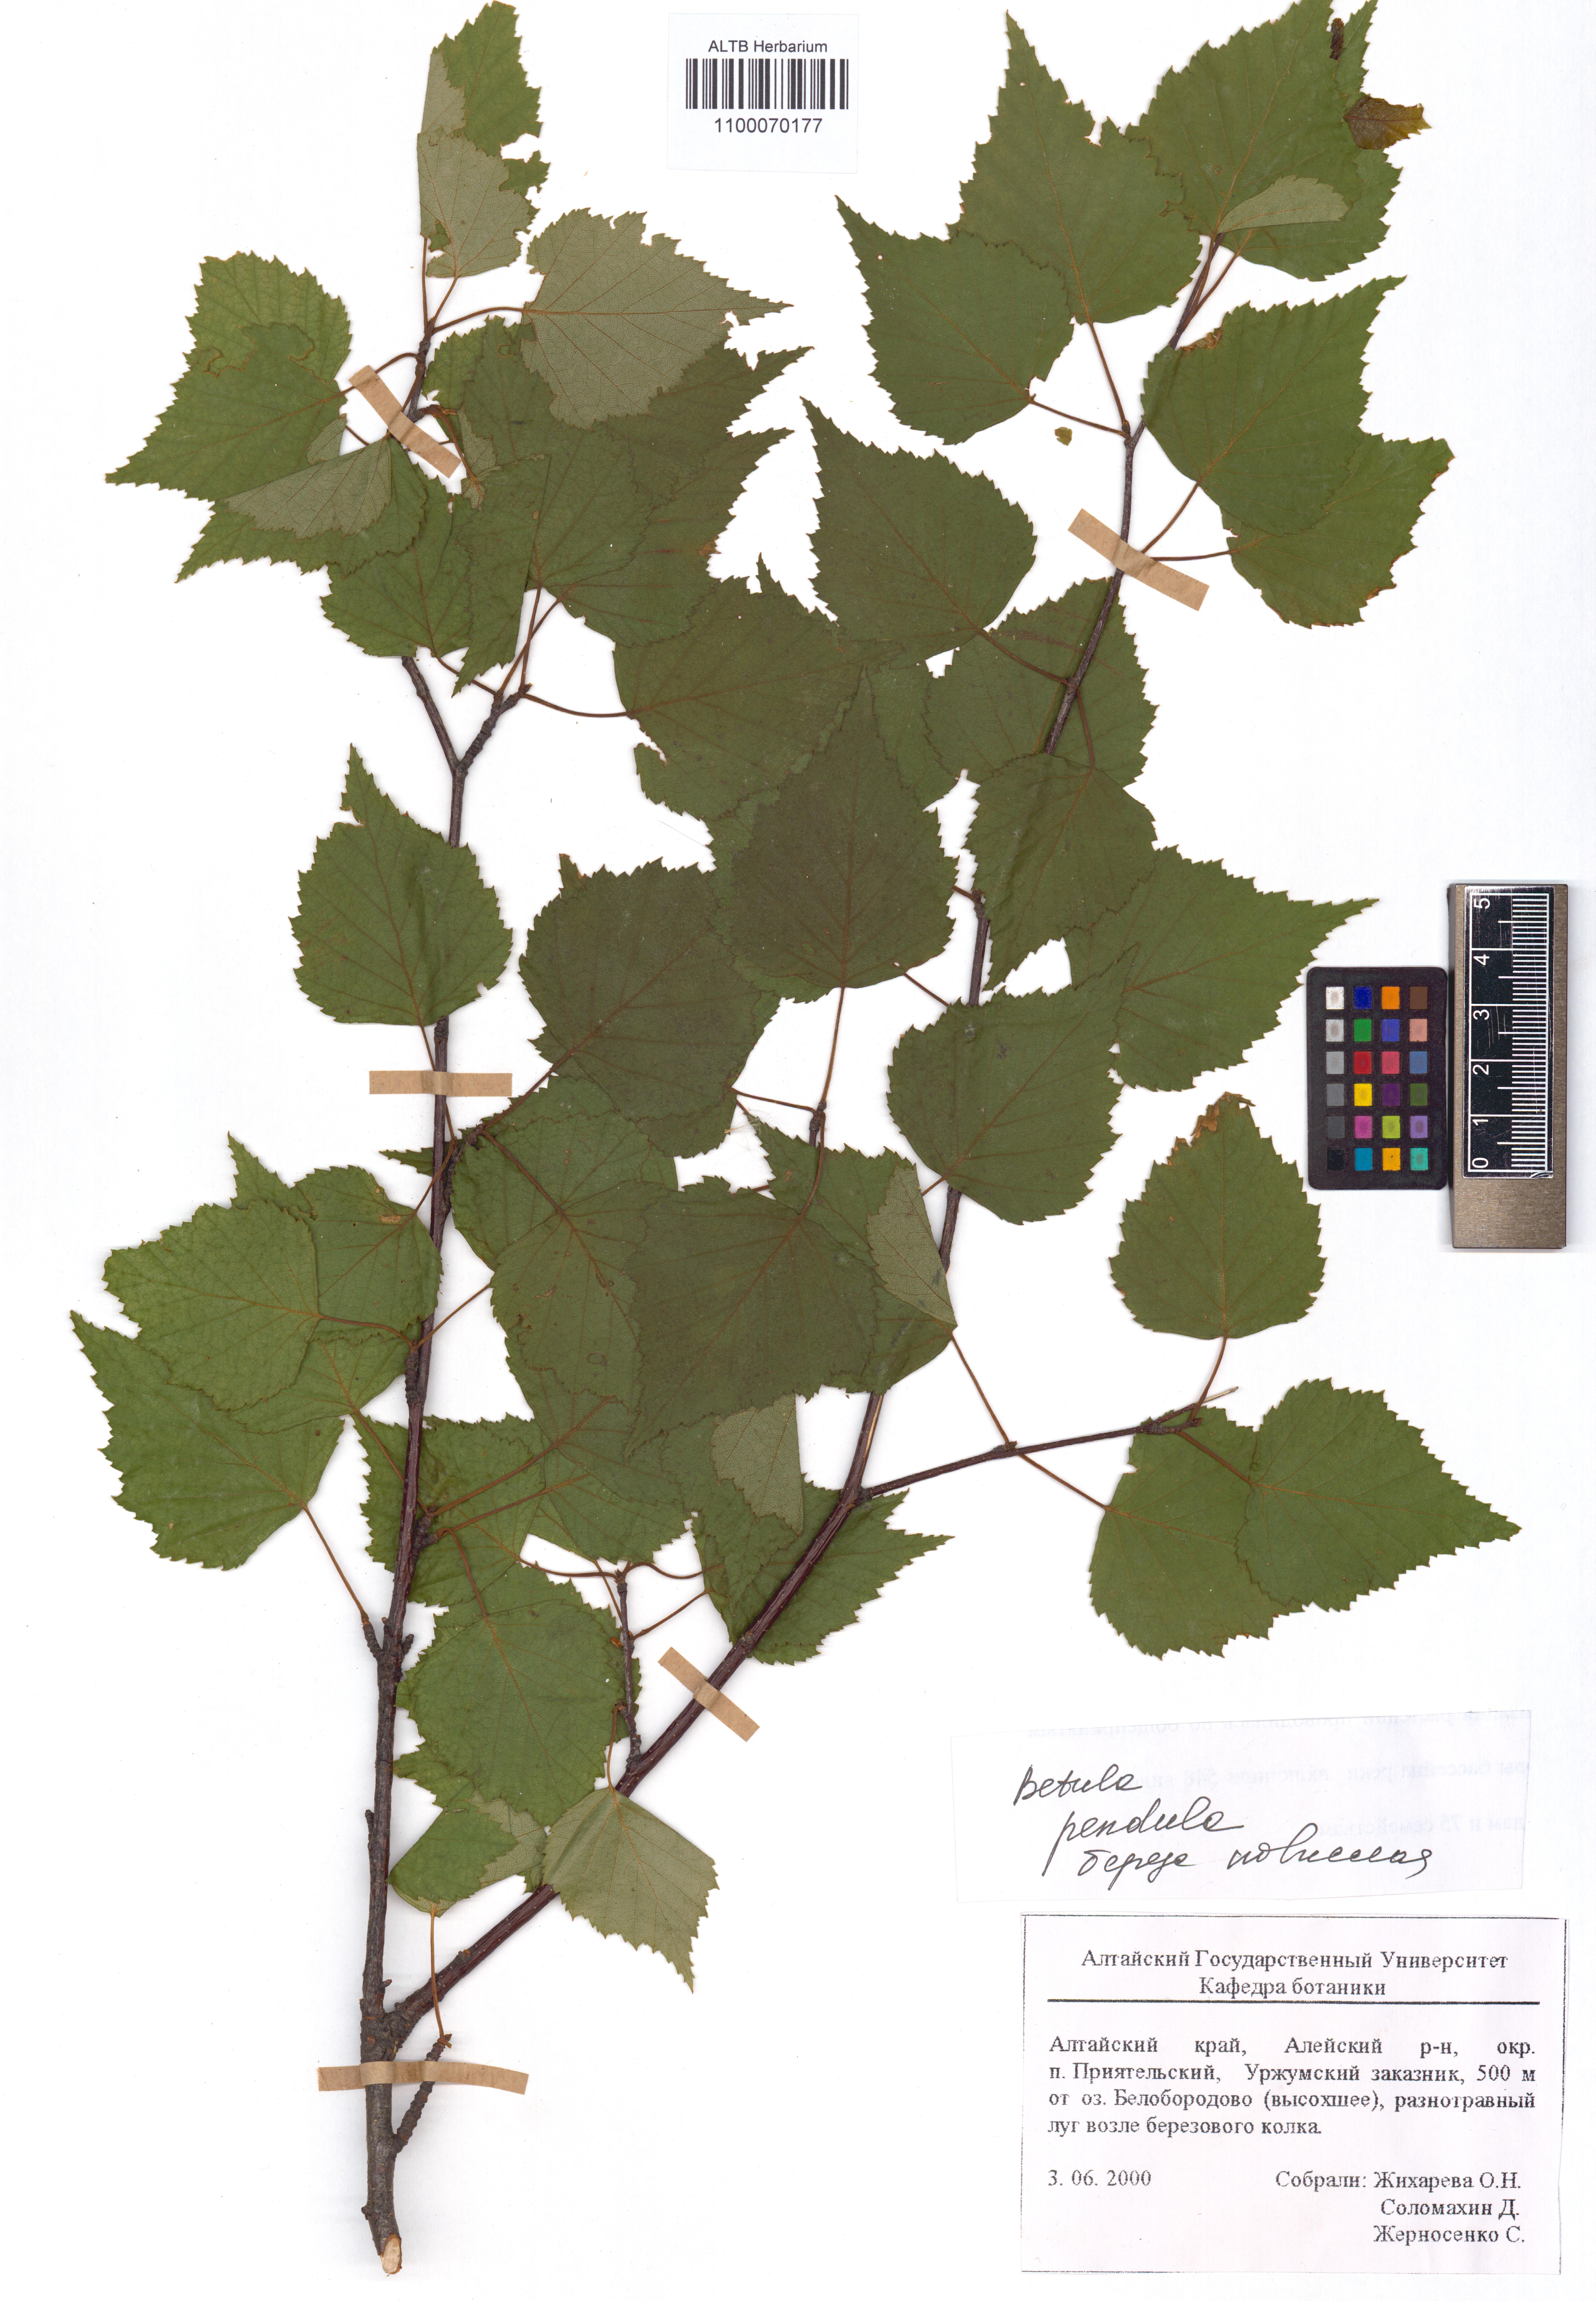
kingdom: Plantae
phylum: Tracheophyta
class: Magnoliopsida
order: Fagales
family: Betulaceae
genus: Betula
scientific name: Betula pendula
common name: Silver birch
